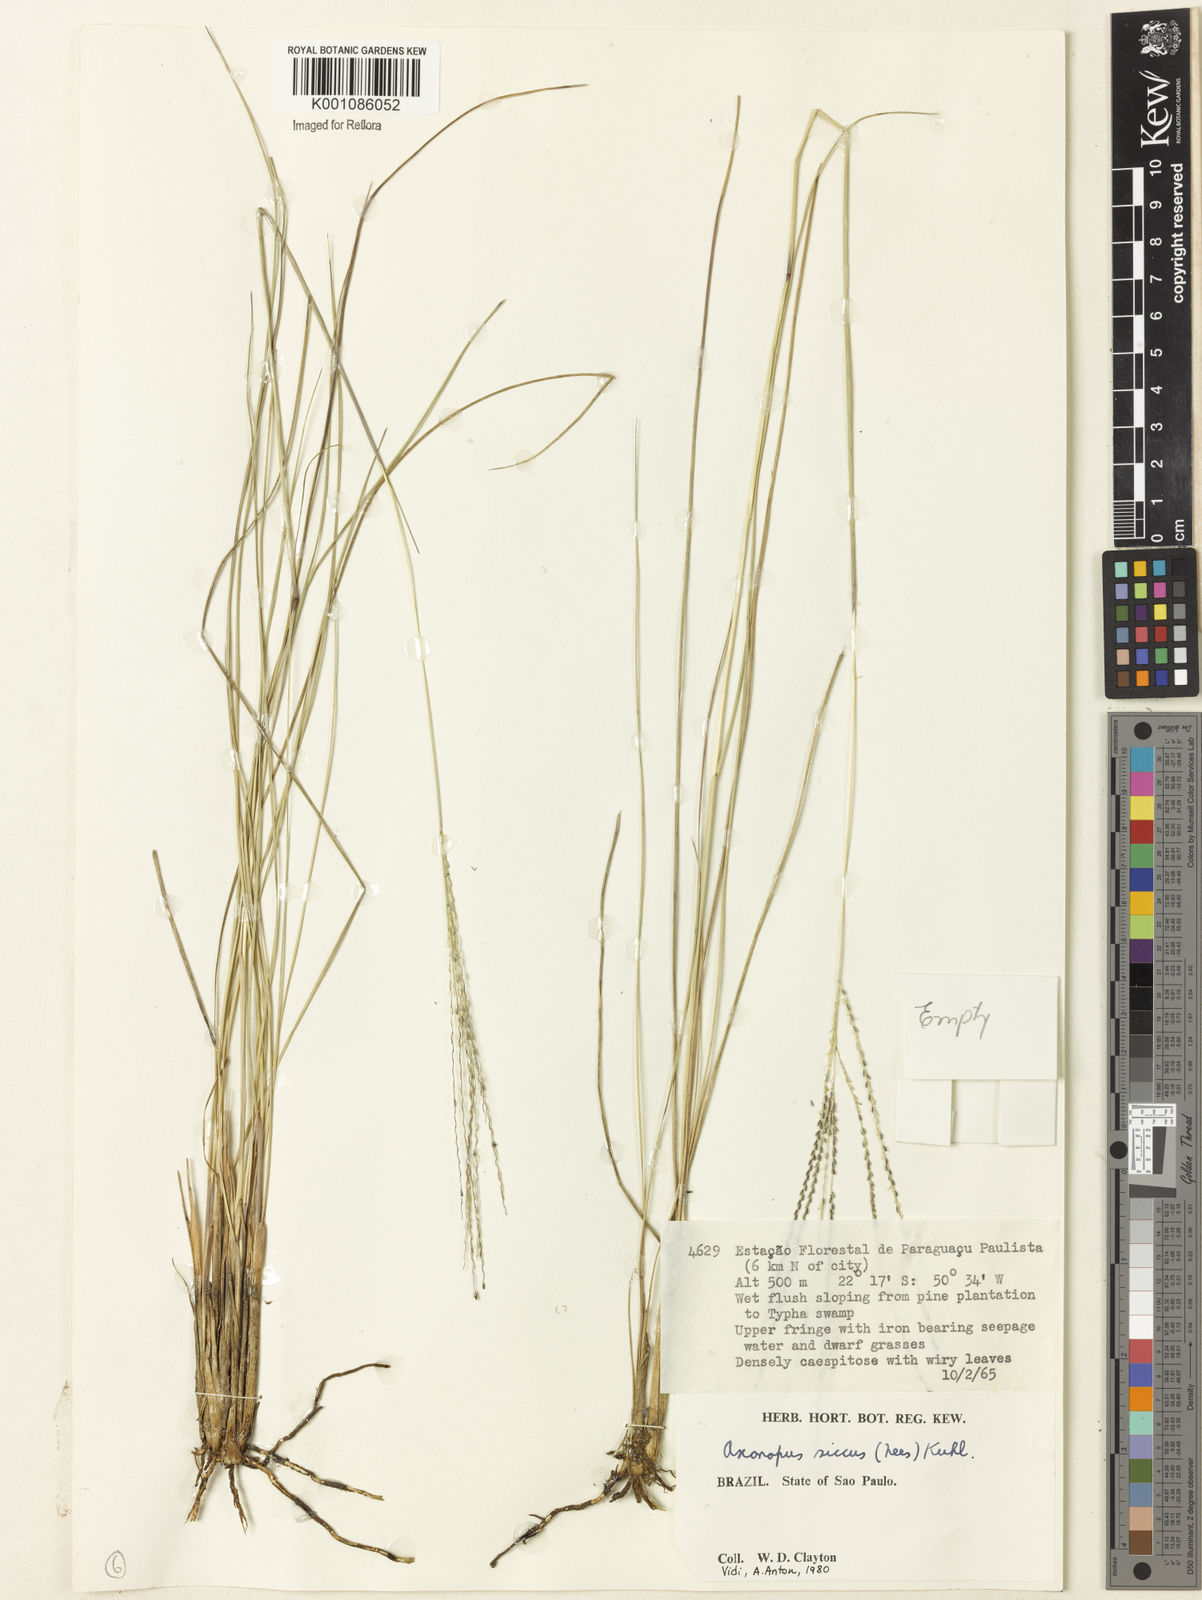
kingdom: Plantae
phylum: Tracheophyta
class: Liliopsida
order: Poales
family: Poaceae
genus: Axonopus
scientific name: Axonopus siccus
